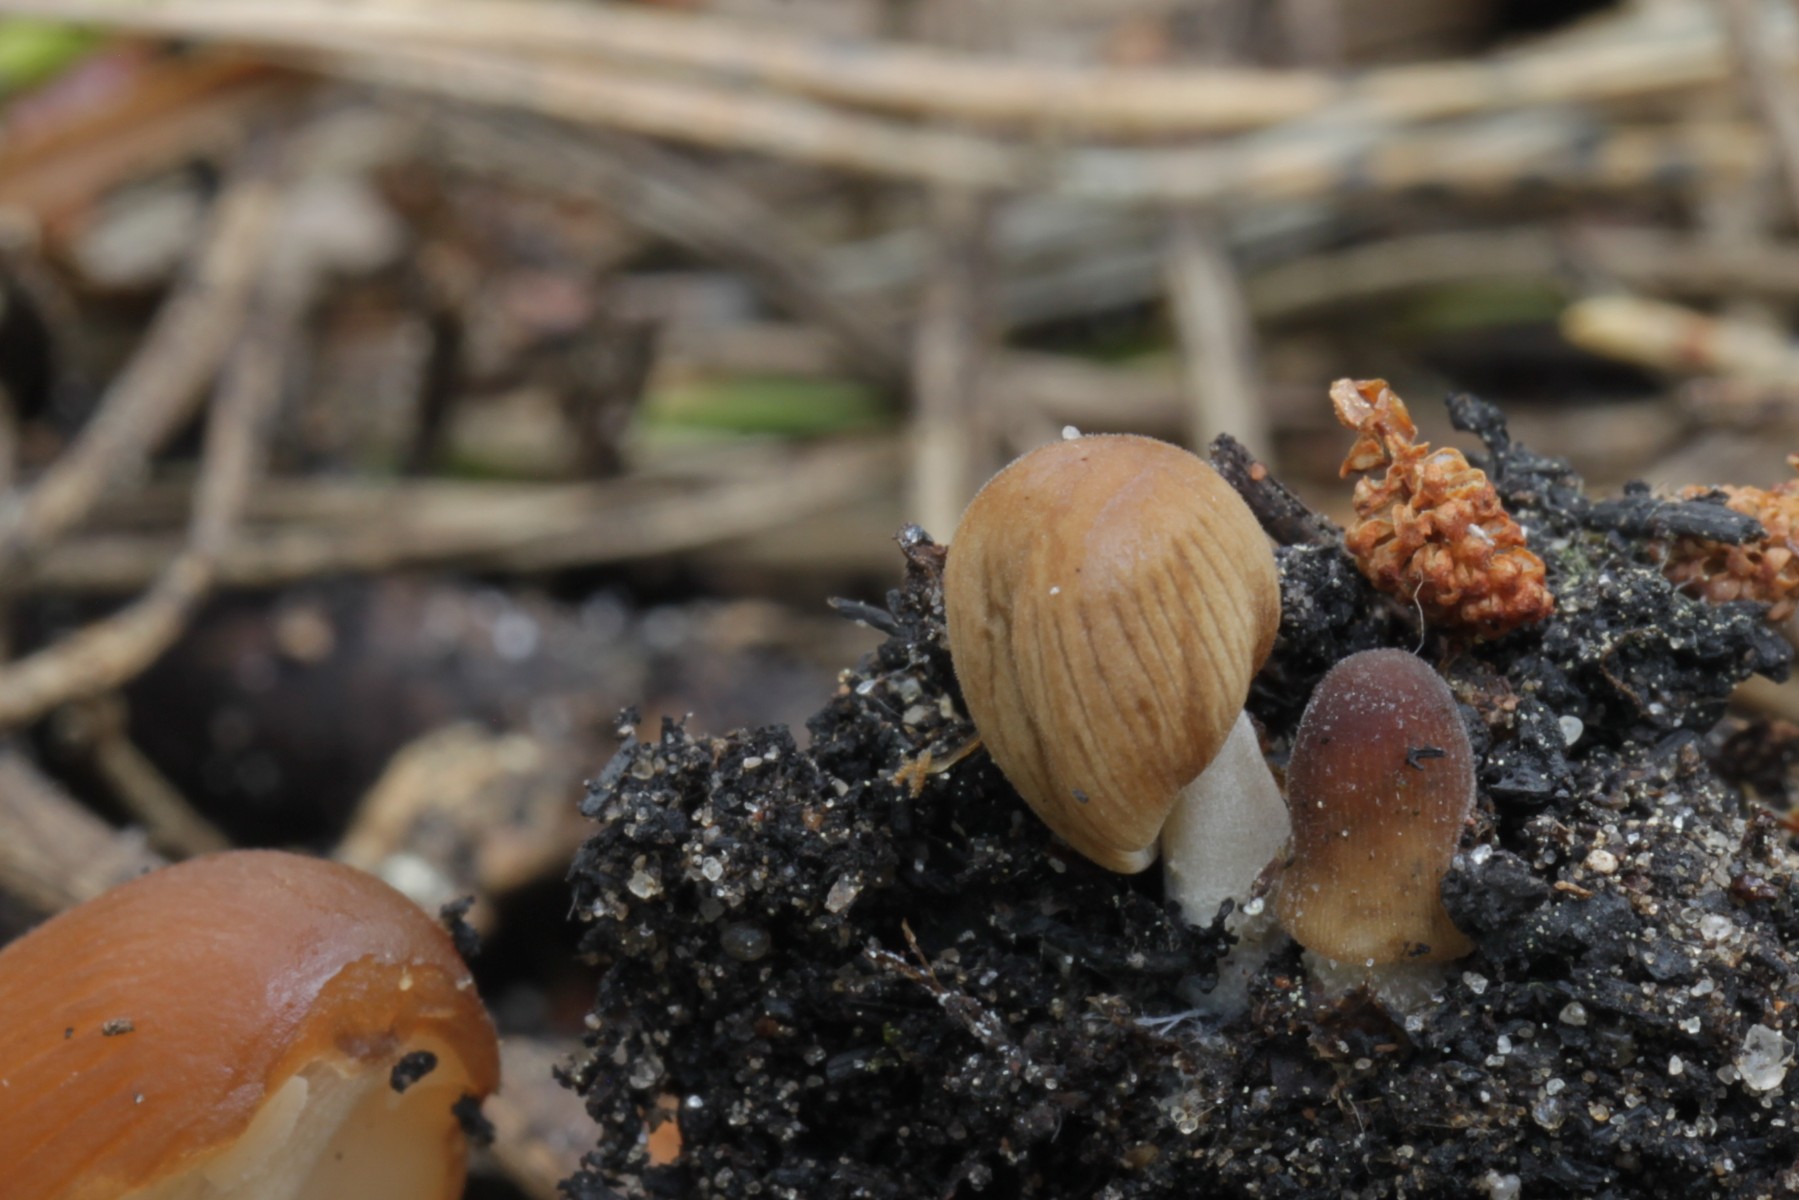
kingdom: Fungi
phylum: Basidiomycota
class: Agaricomycetes
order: Agaricales
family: Psathyrellaceae
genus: Tulosesus
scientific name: Tulosesus angulatus
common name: kul-blækhat
